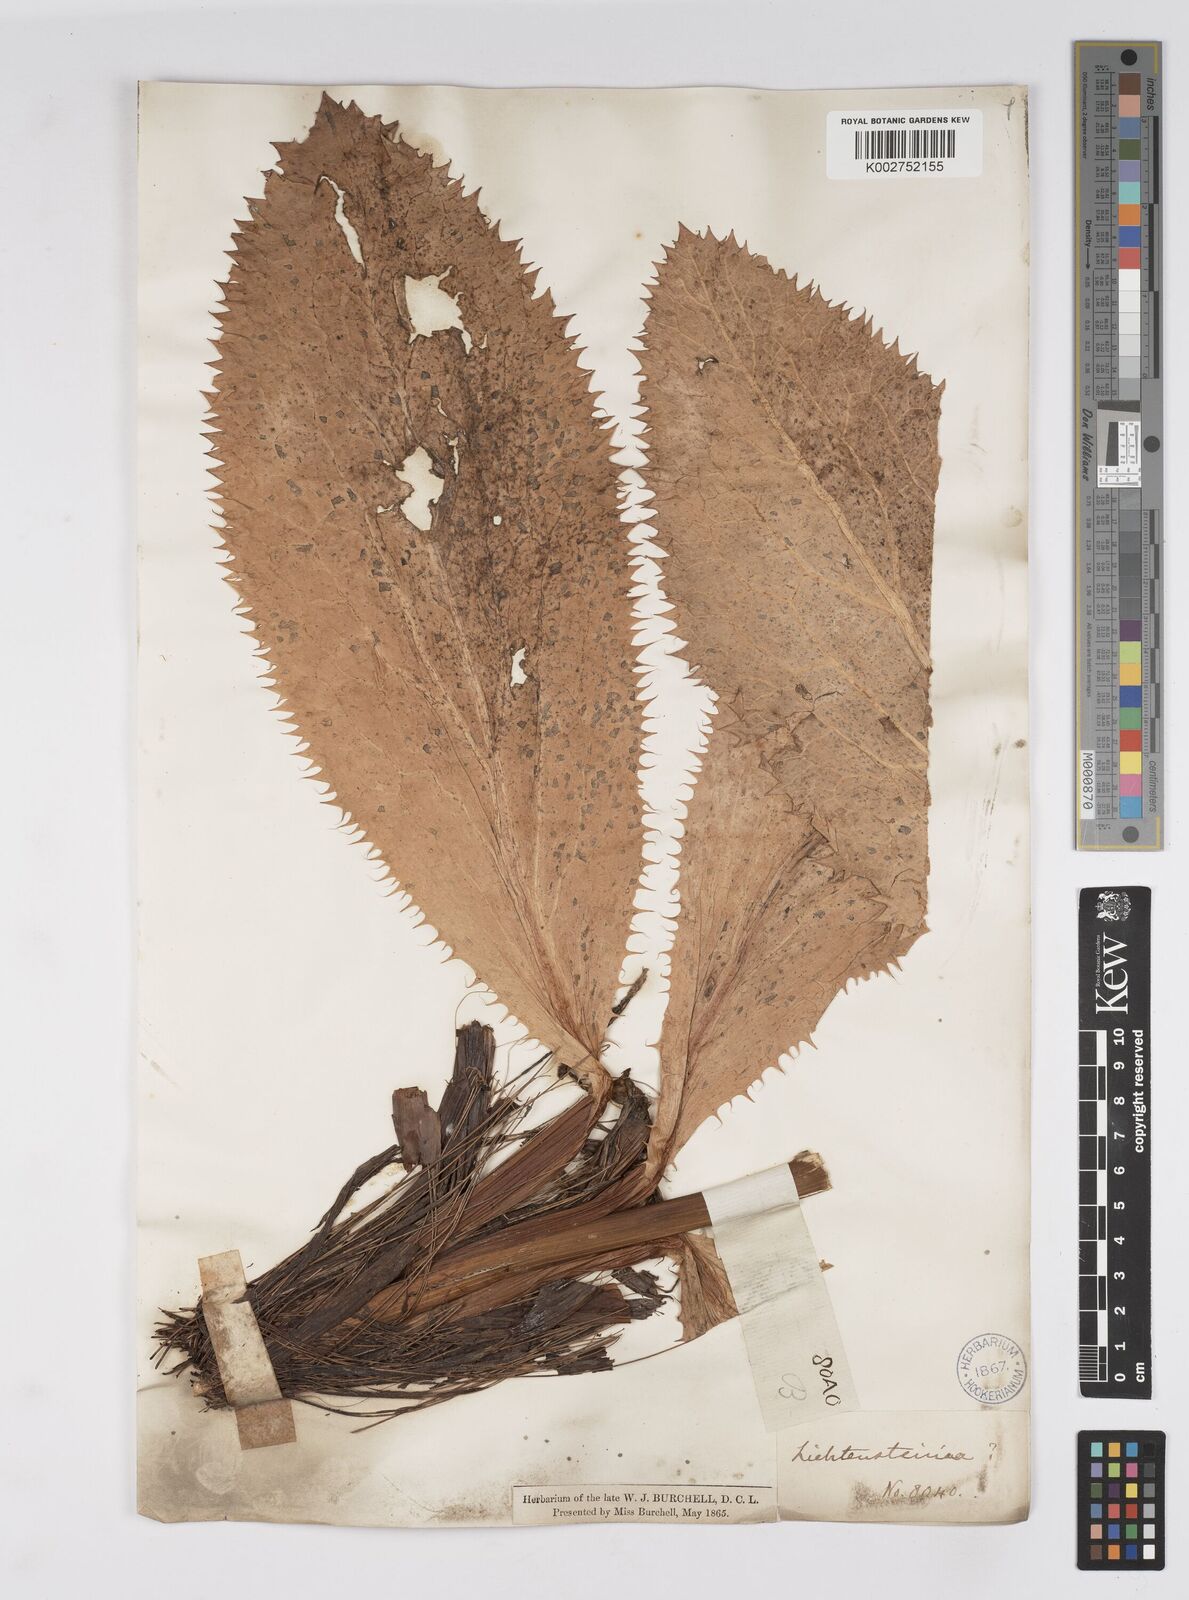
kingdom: Plantae
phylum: Tracheophyta
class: Magnoliopsida
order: Apiales
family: Apiaceae
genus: Lichtensteinia
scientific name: Lichtensteinia
